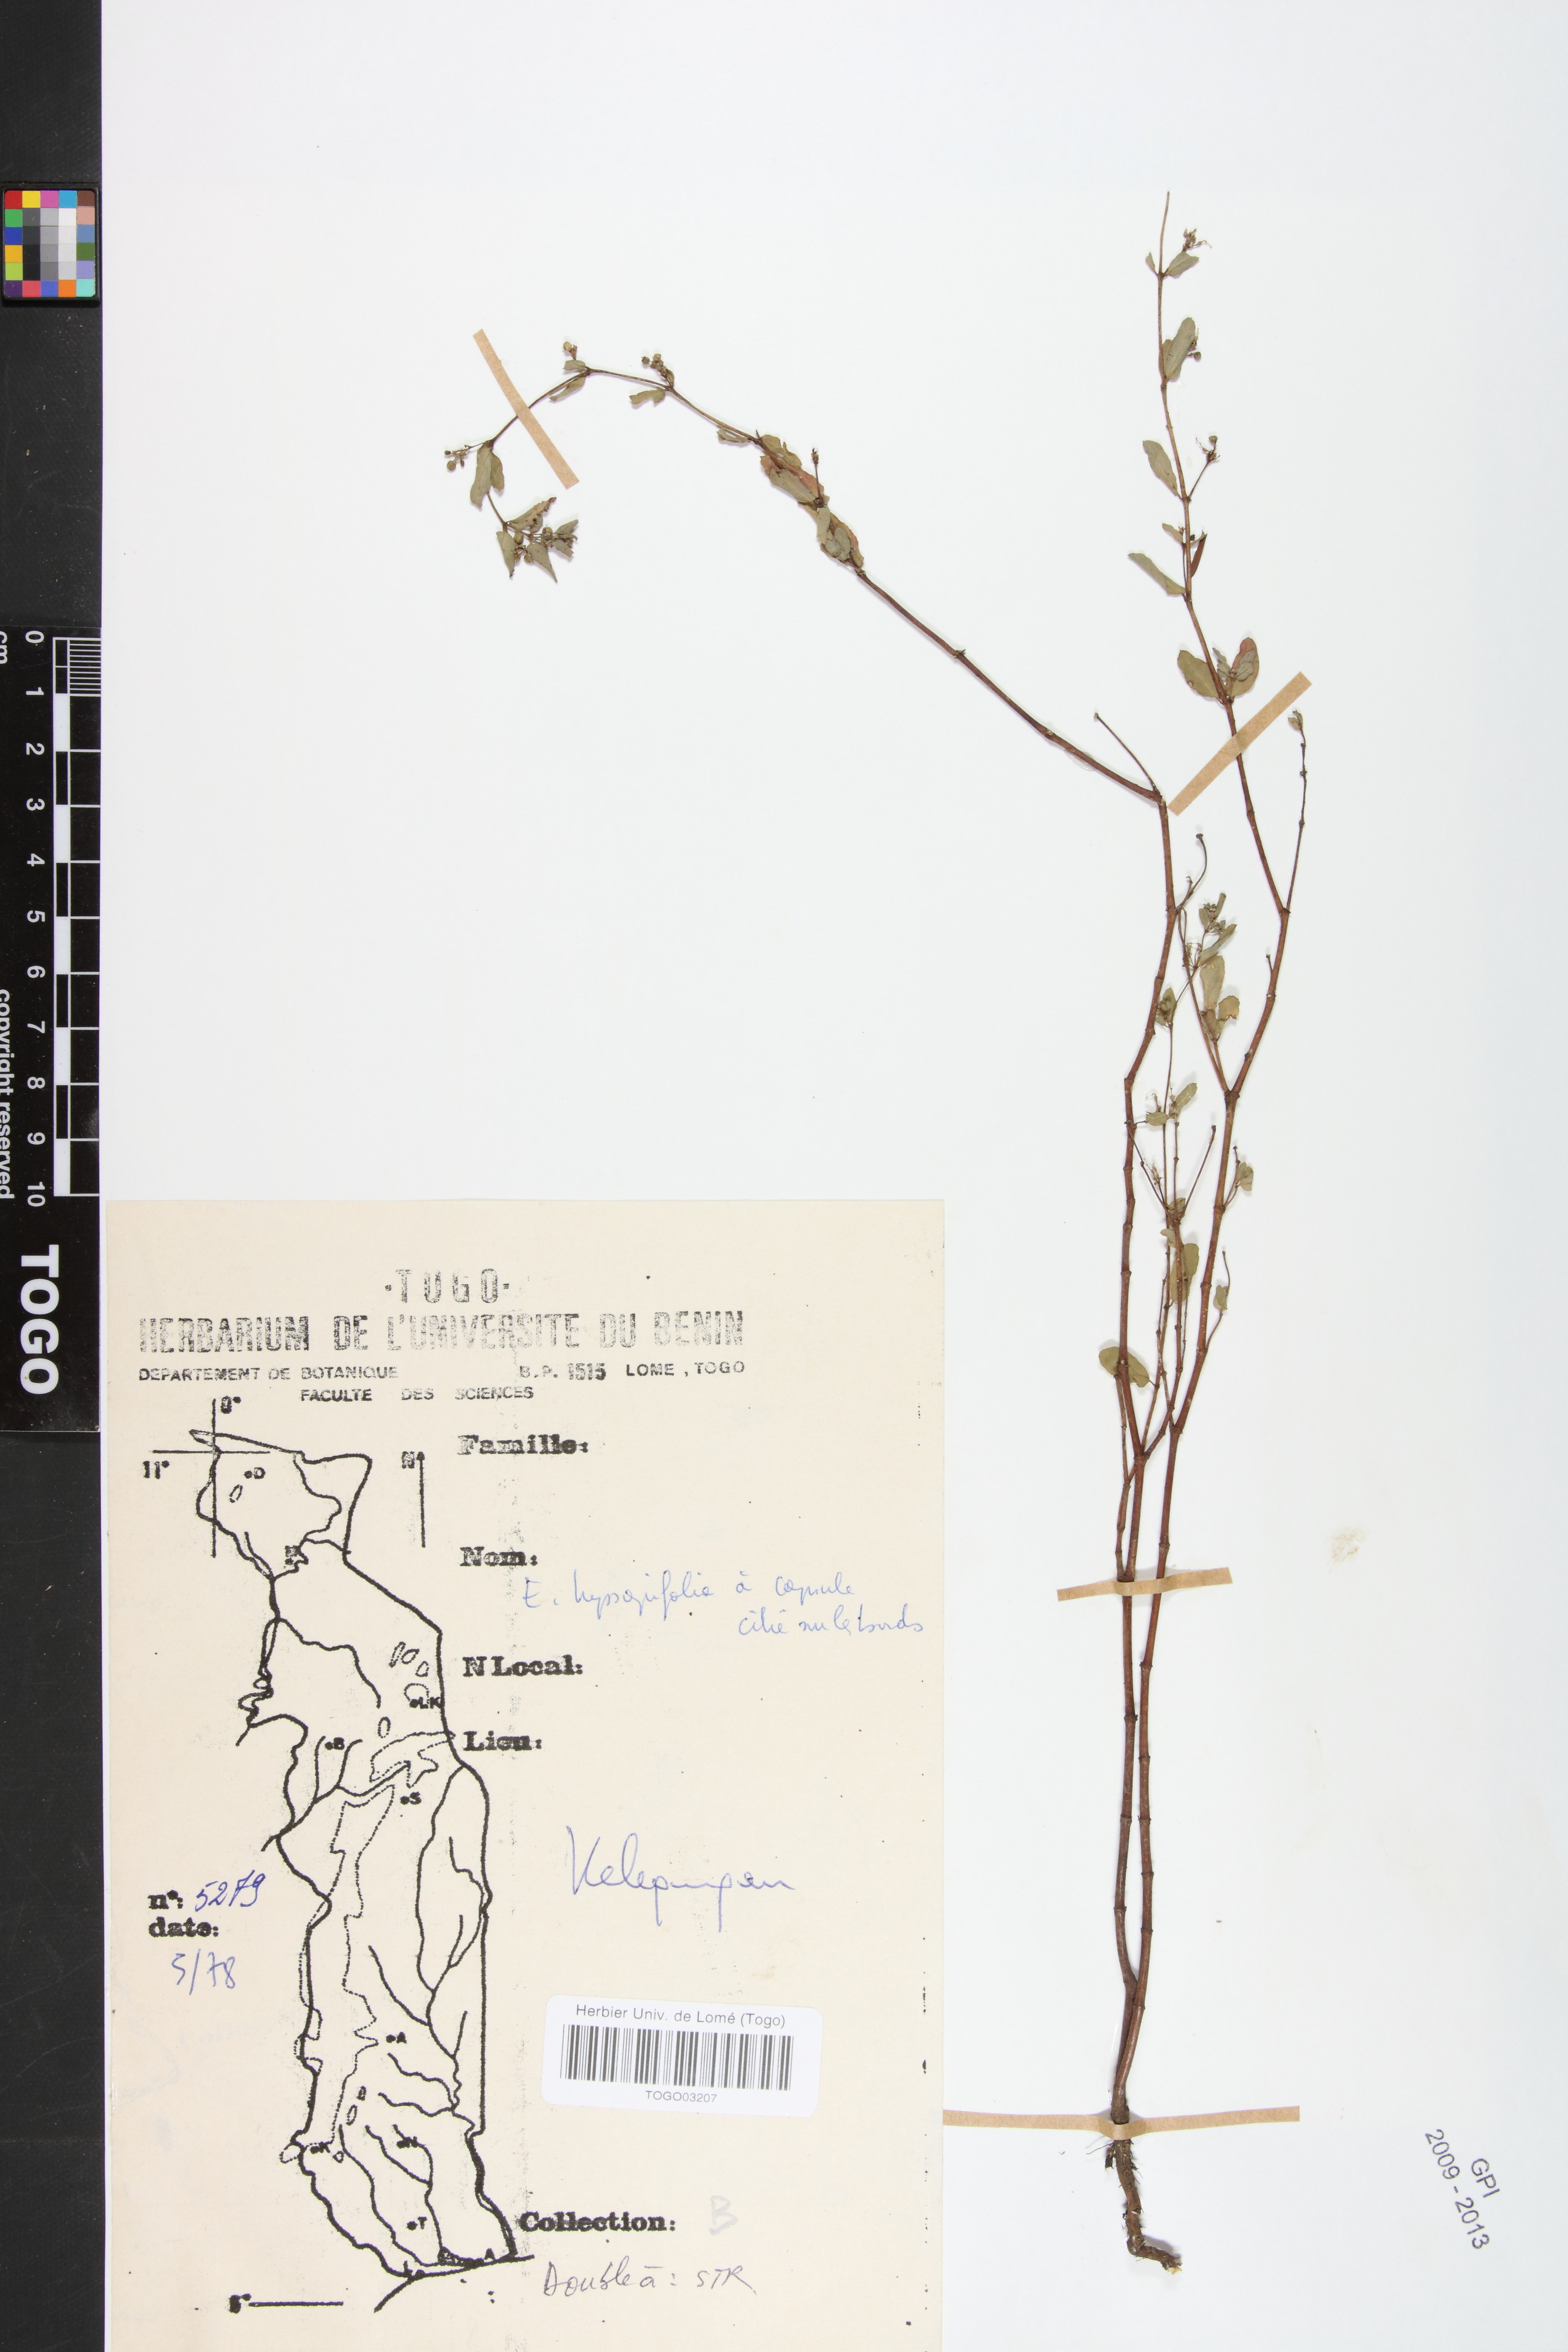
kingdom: Plantae
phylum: Tracheophyta
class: Magnoliopsida
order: Malpighiales
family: Euphorbiaceae
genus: Euphorbia
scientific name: Euphorbia hyssopifolia
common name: Hyssopleaf sandmat
